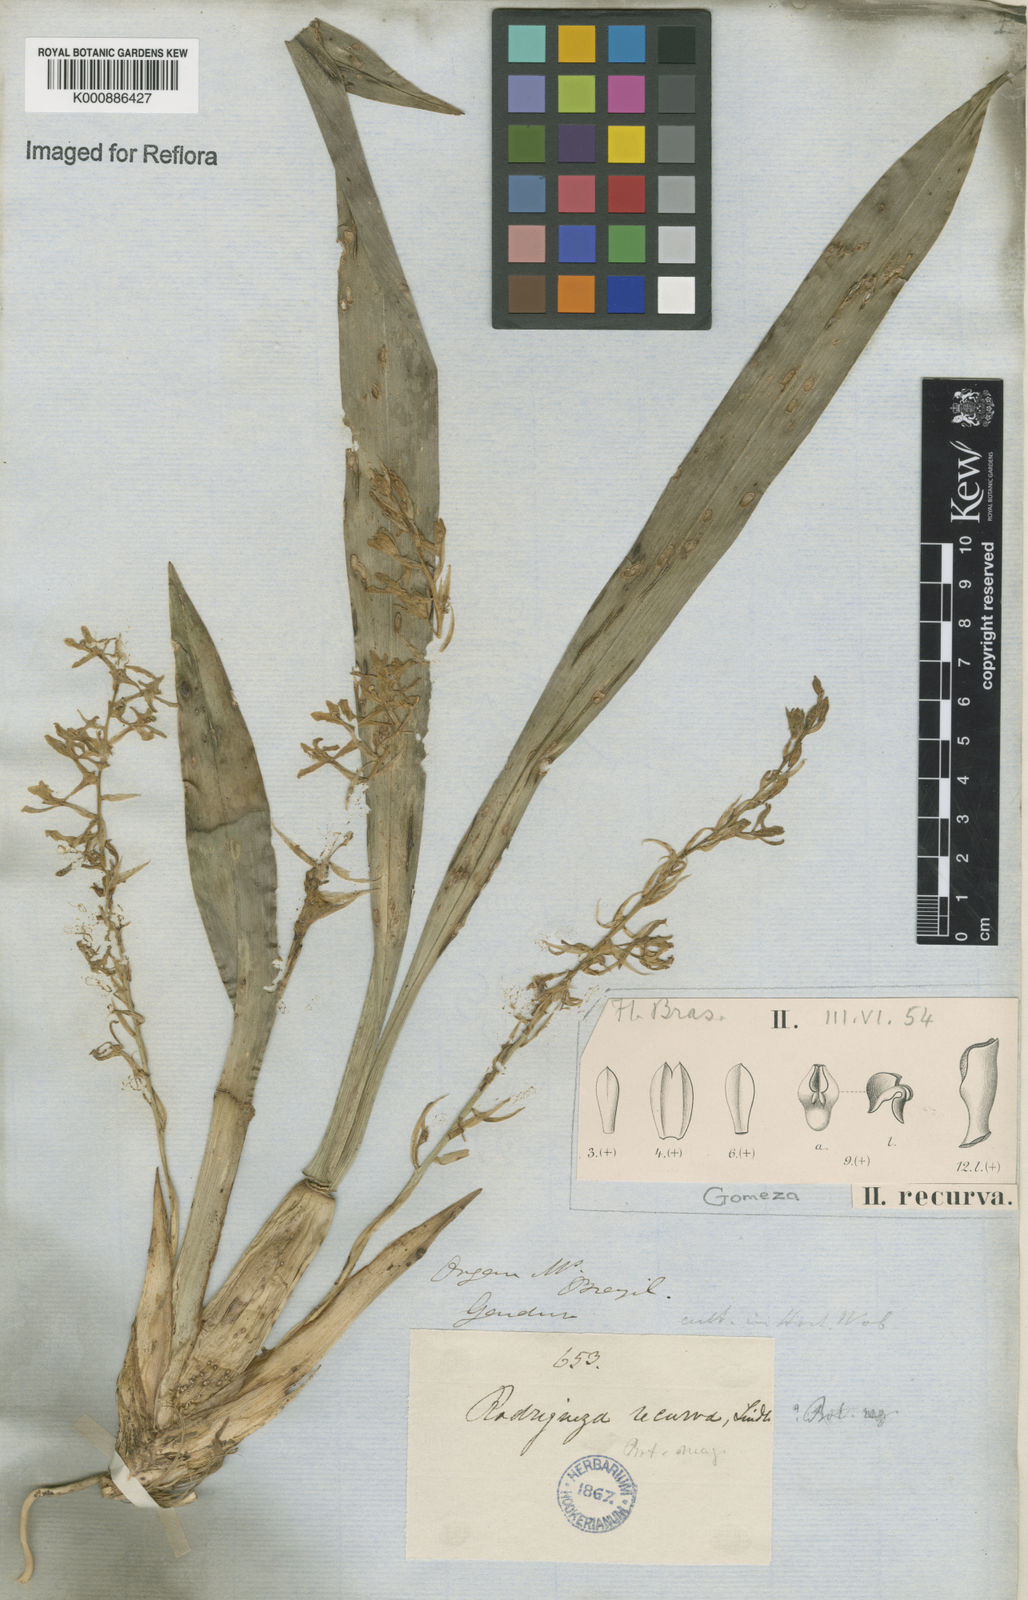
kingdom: Plantae
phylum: Tracheophyta
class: Liliopsida
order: Asparagales
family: Orchidaceae
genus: Gomesa
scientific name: Gomesa recurva
